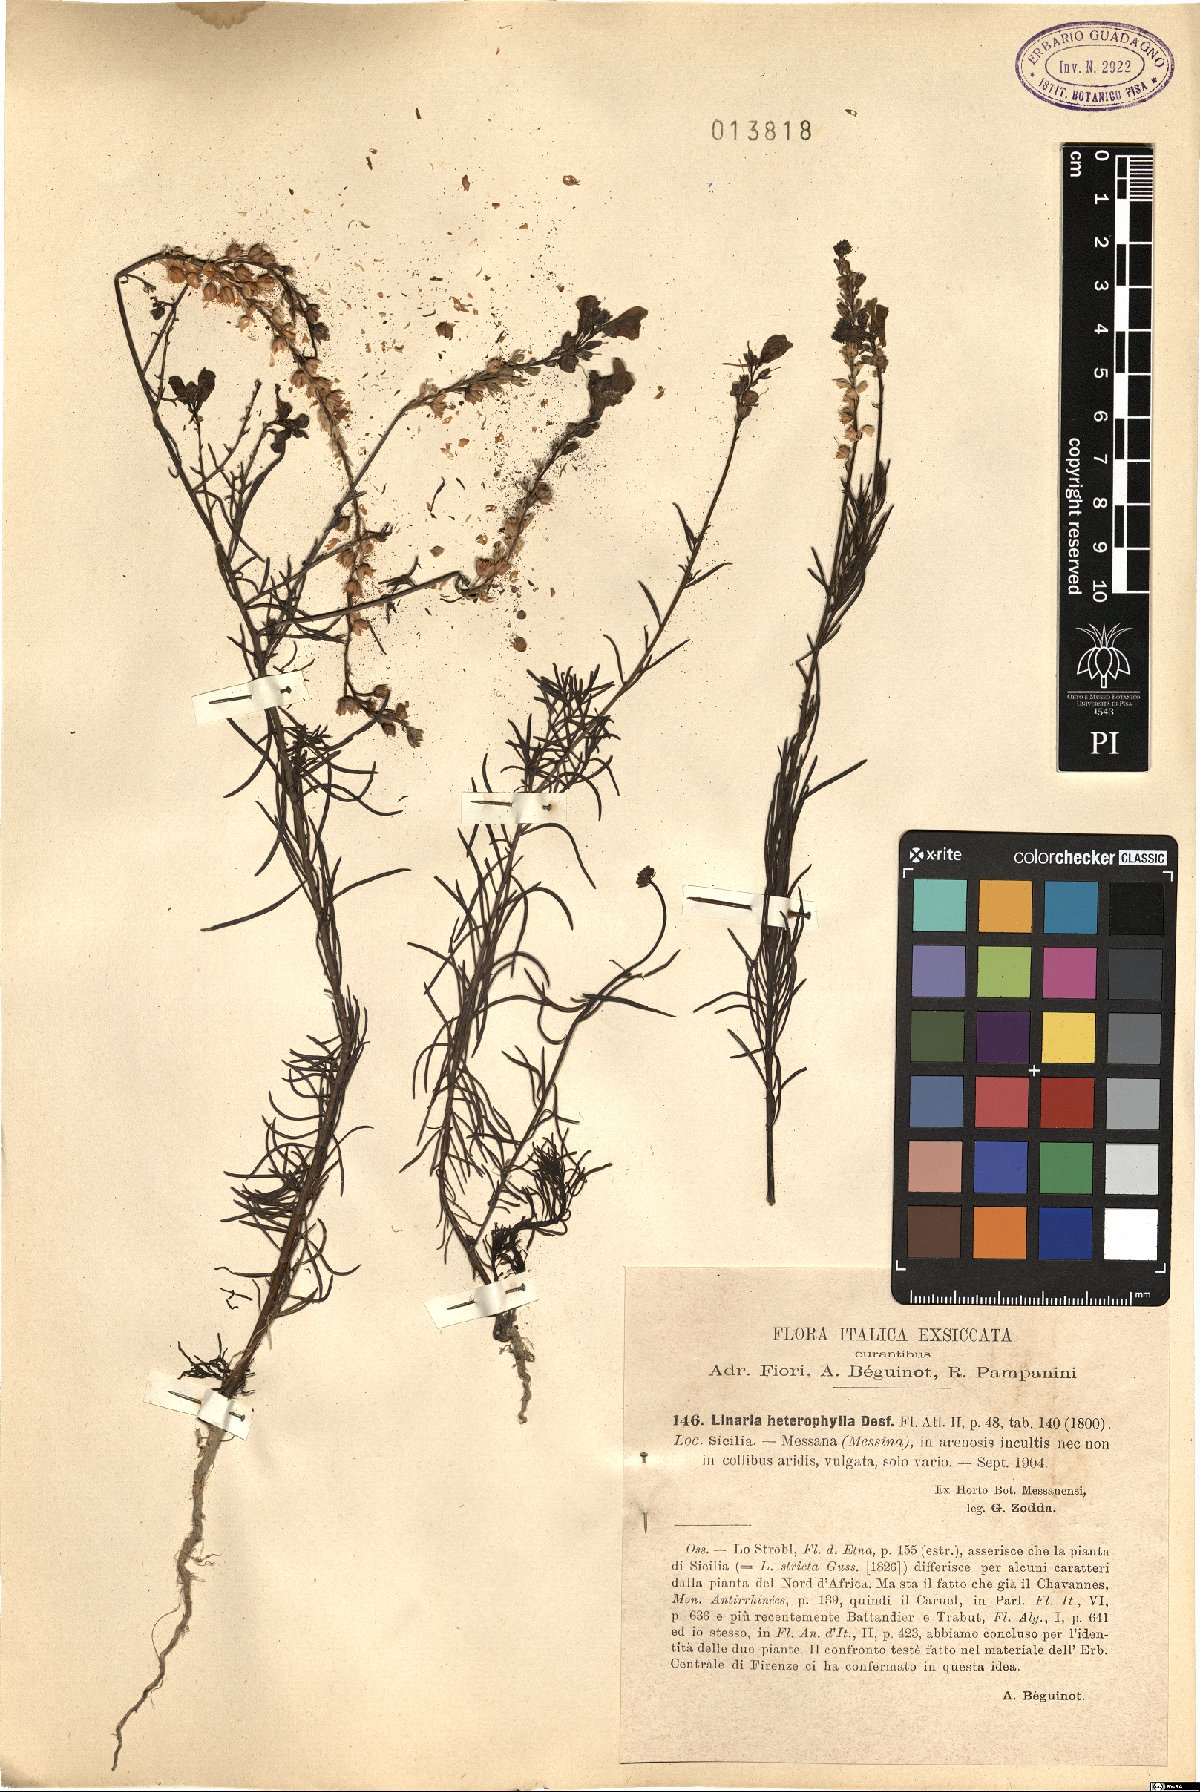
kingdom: Plantae
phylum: Tracheophyta
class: Magnoliopsida
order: Lamiales
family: Plantaginaceae
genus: Linaria
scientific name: Linaria multicaulis
